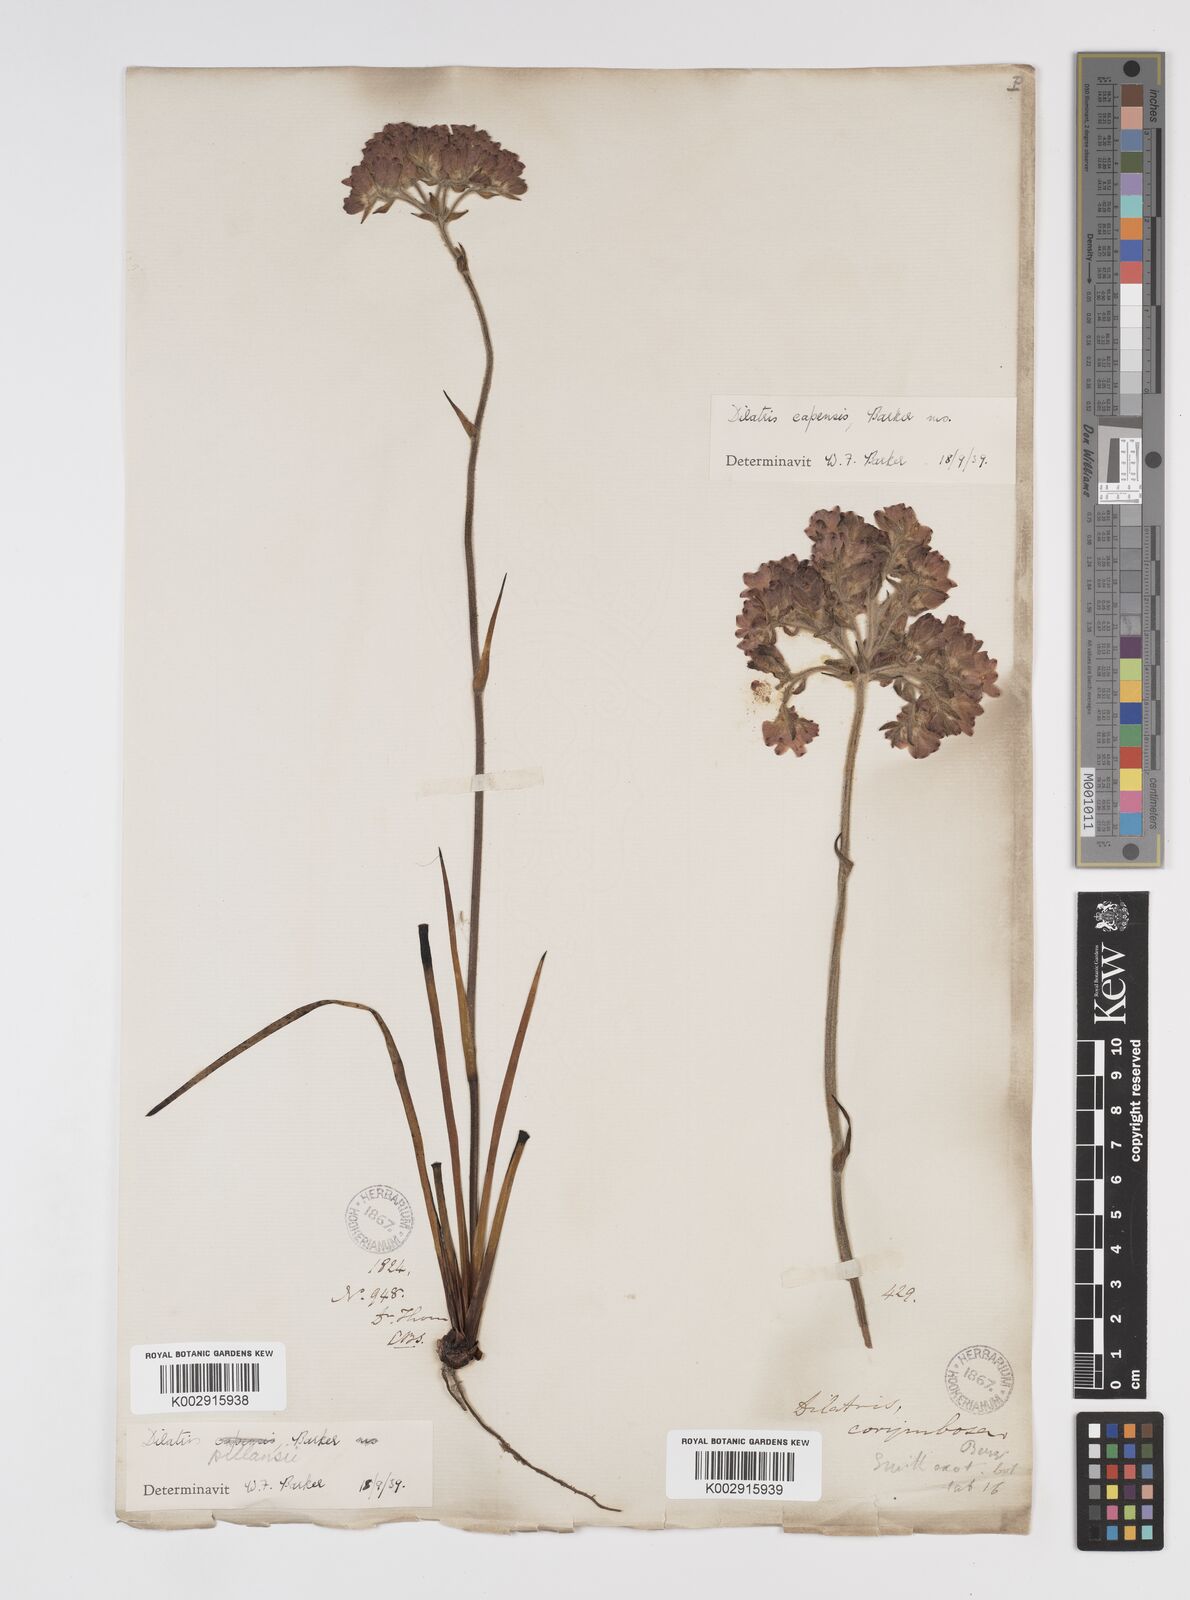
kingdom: Plantae
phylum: Tracheophyta
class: Liliopsida
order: Commelinales
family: Haemodoraceae
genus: Dilatris
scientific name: Dilatris pillansii
